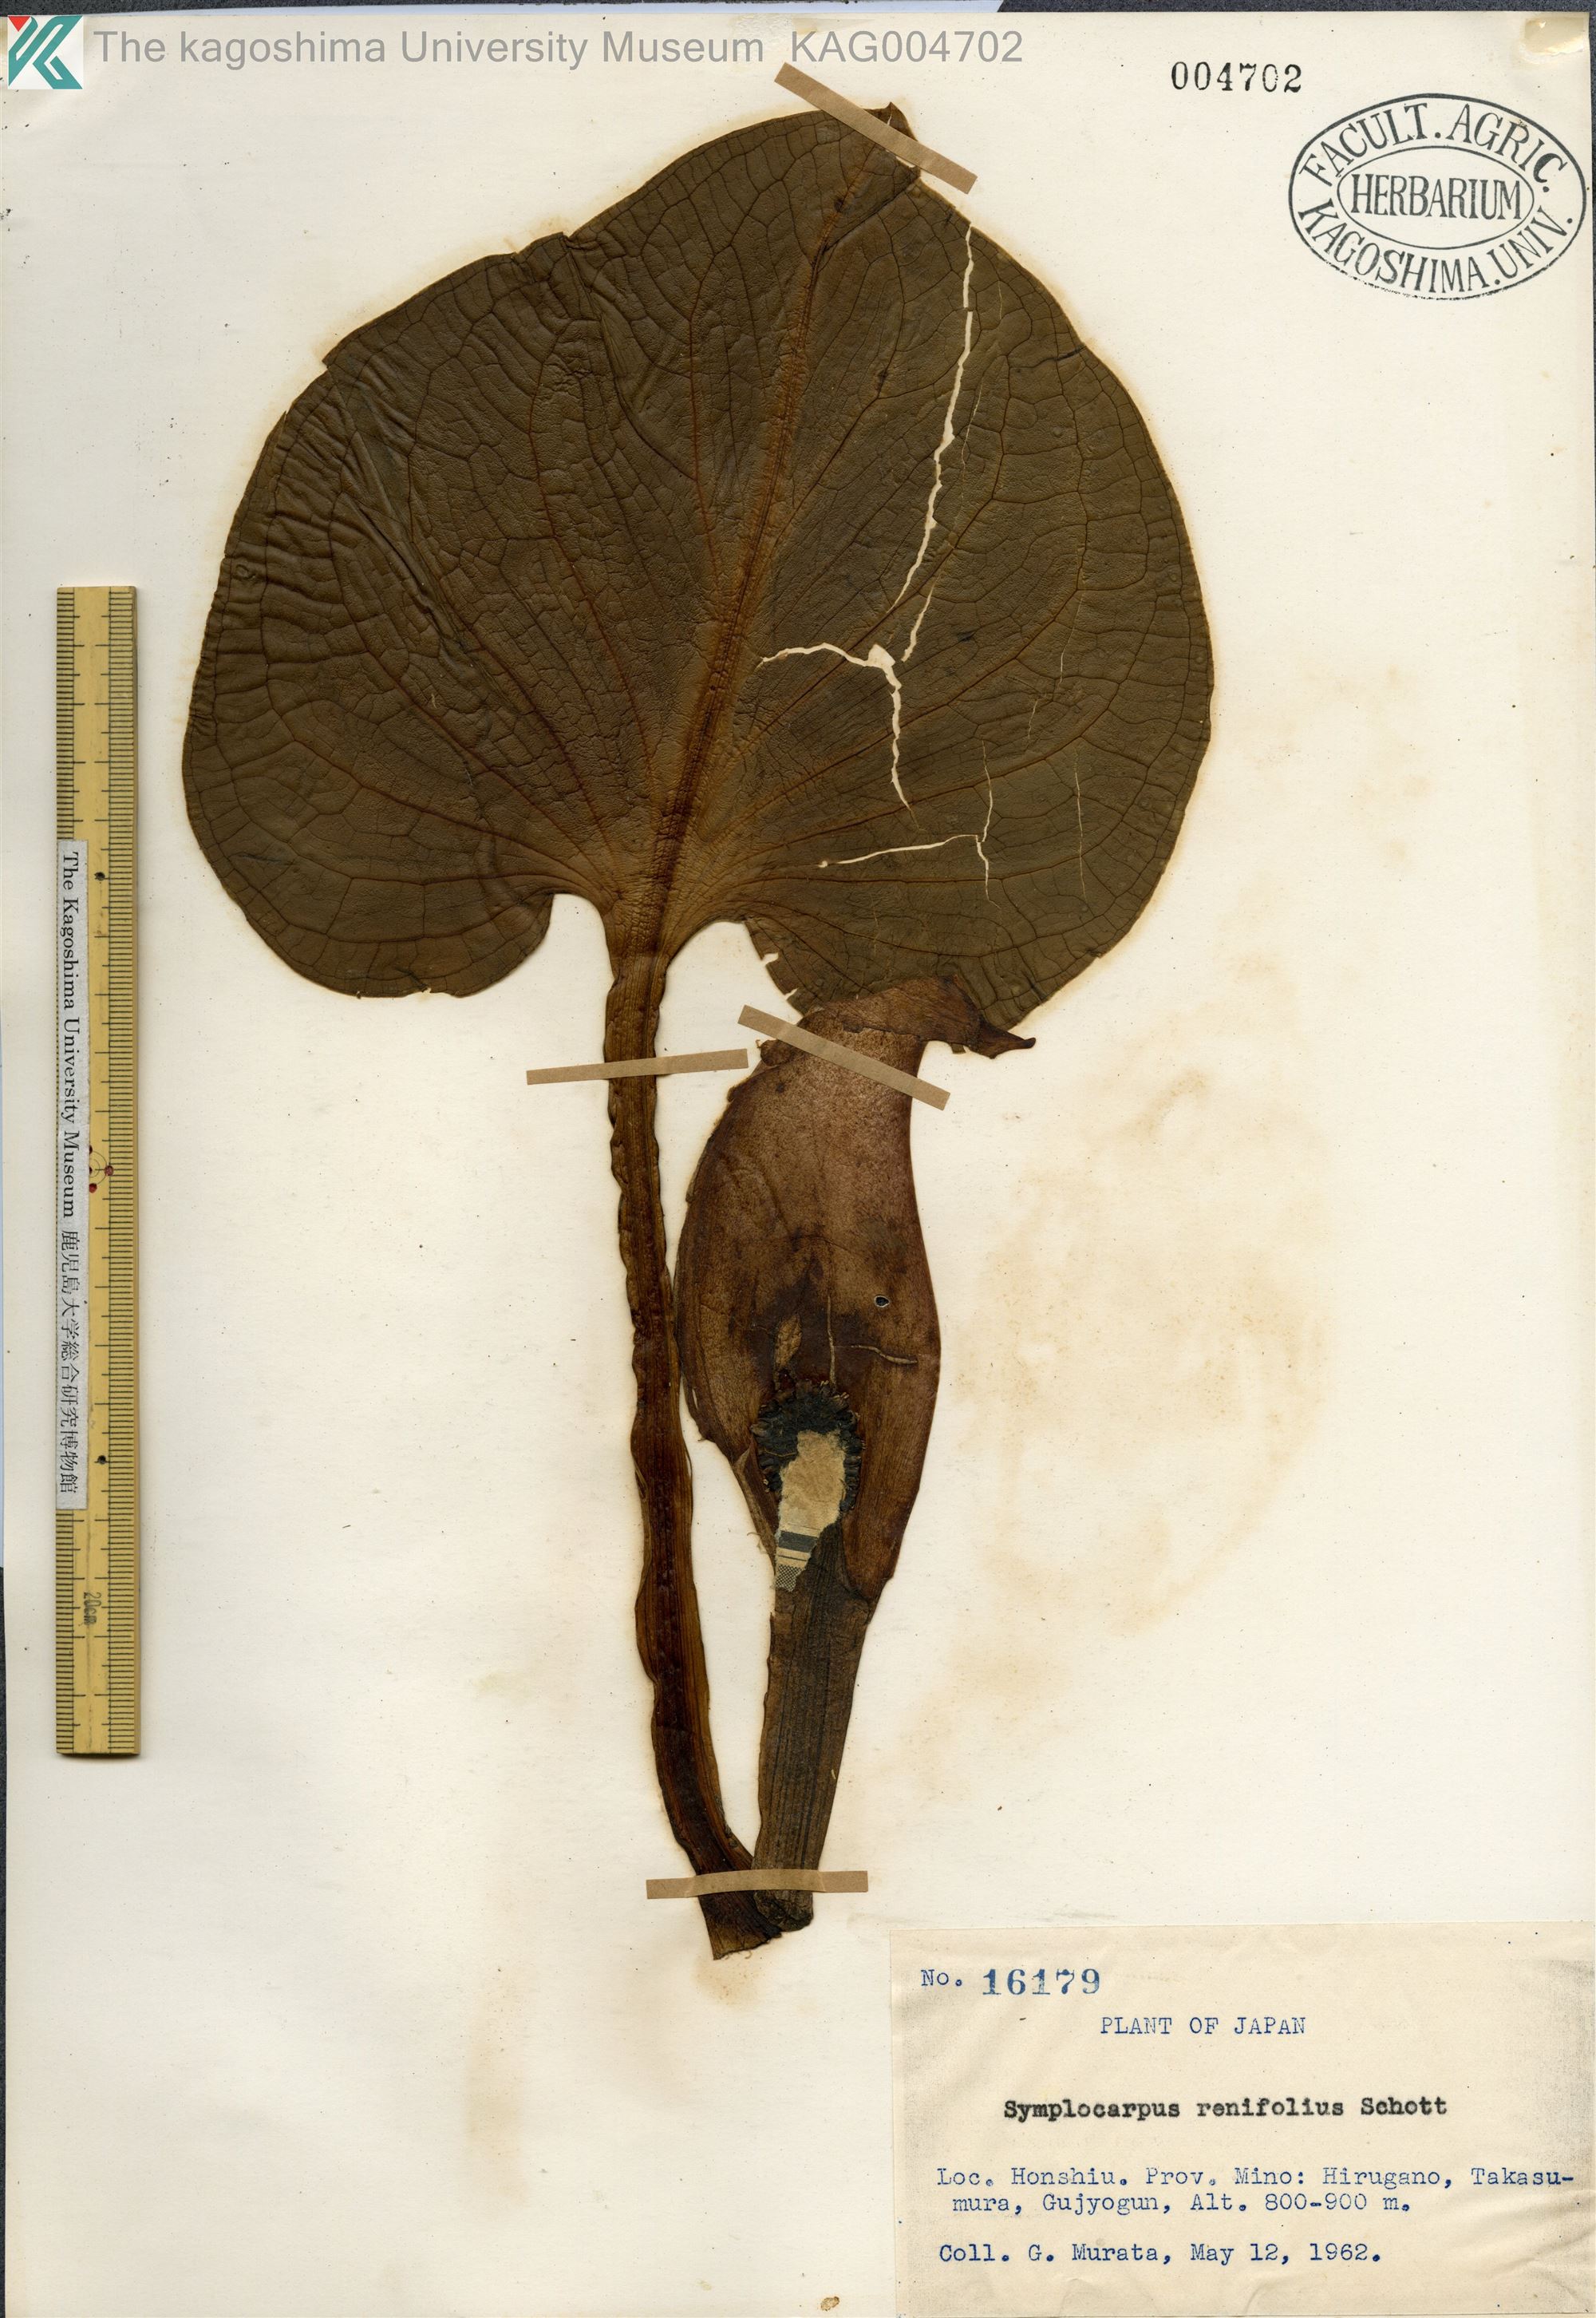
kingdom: Plantae
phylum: Tracheophyta
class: Liliopsida
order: Alismatales
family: Araceae
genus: Symplocarpus
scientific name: Symplocarpus renifolius
